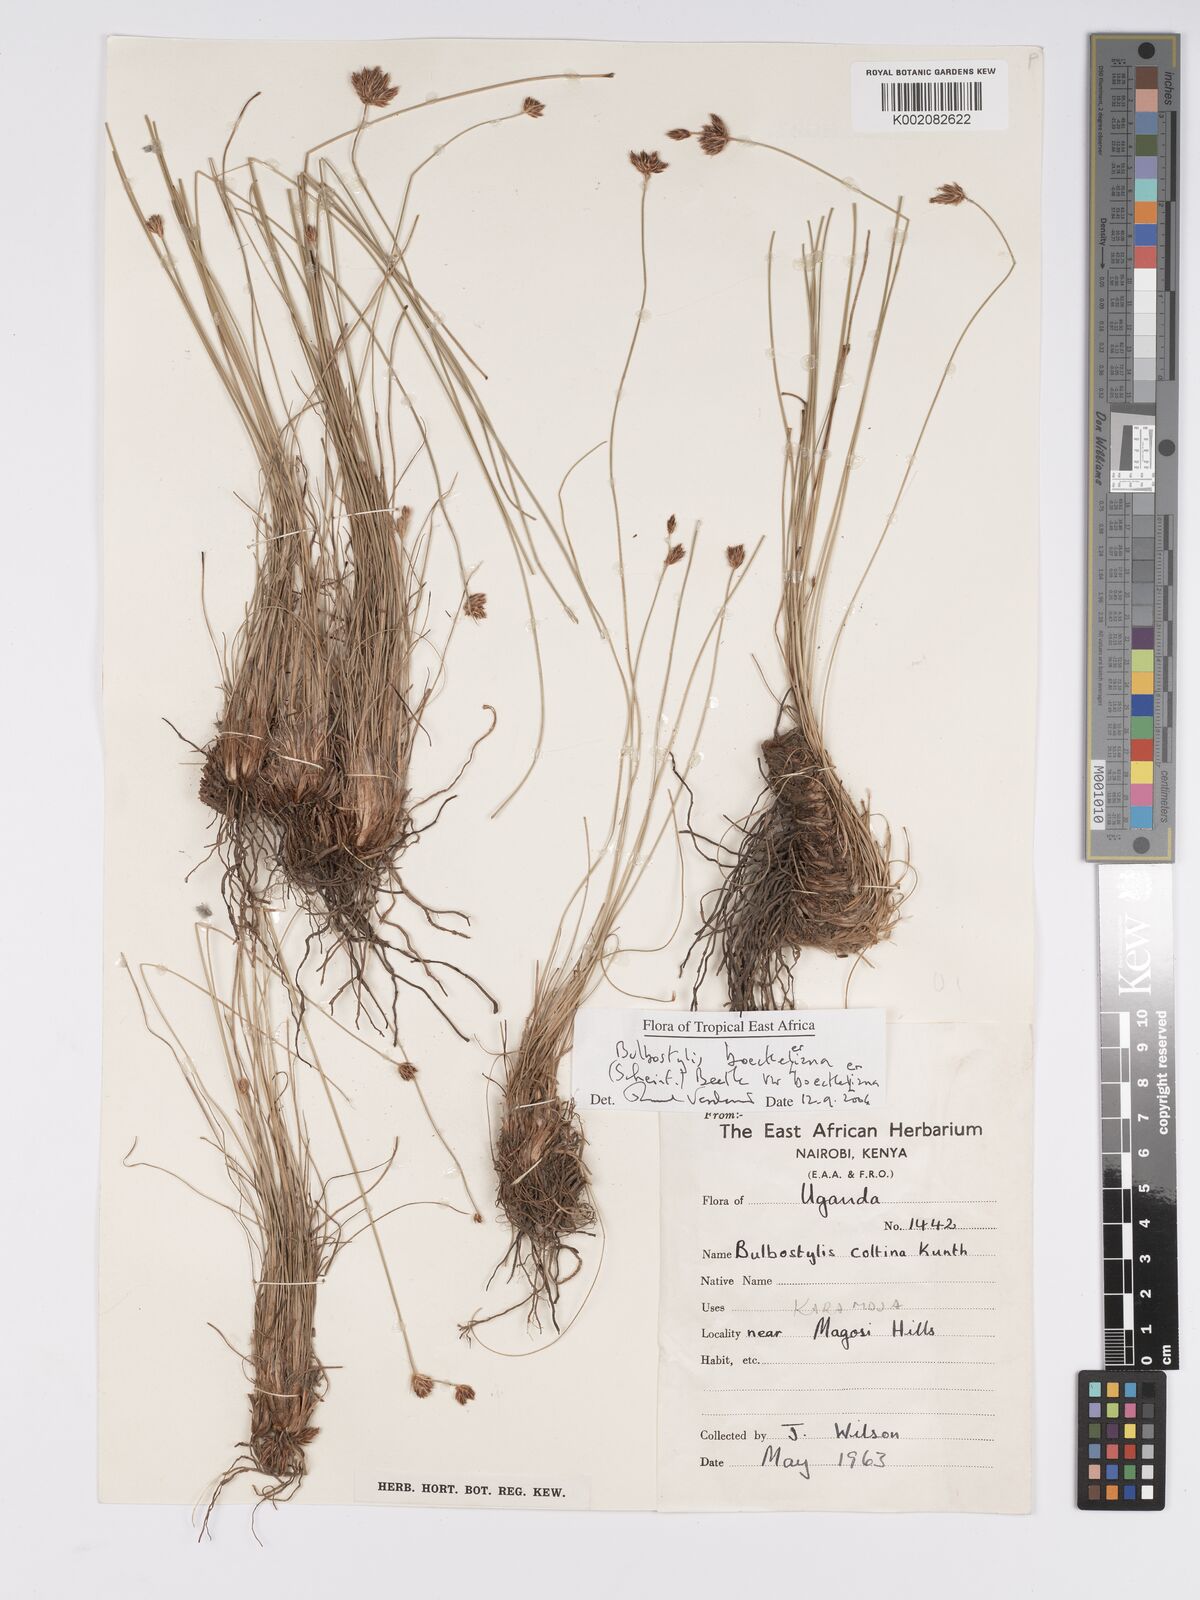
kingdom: Plantae
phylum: Tracheophyta
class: Liliopsida
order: Poales
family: Cyperaceae
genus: Bulbostylis
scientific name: Bulbostylis boeckeleriana
